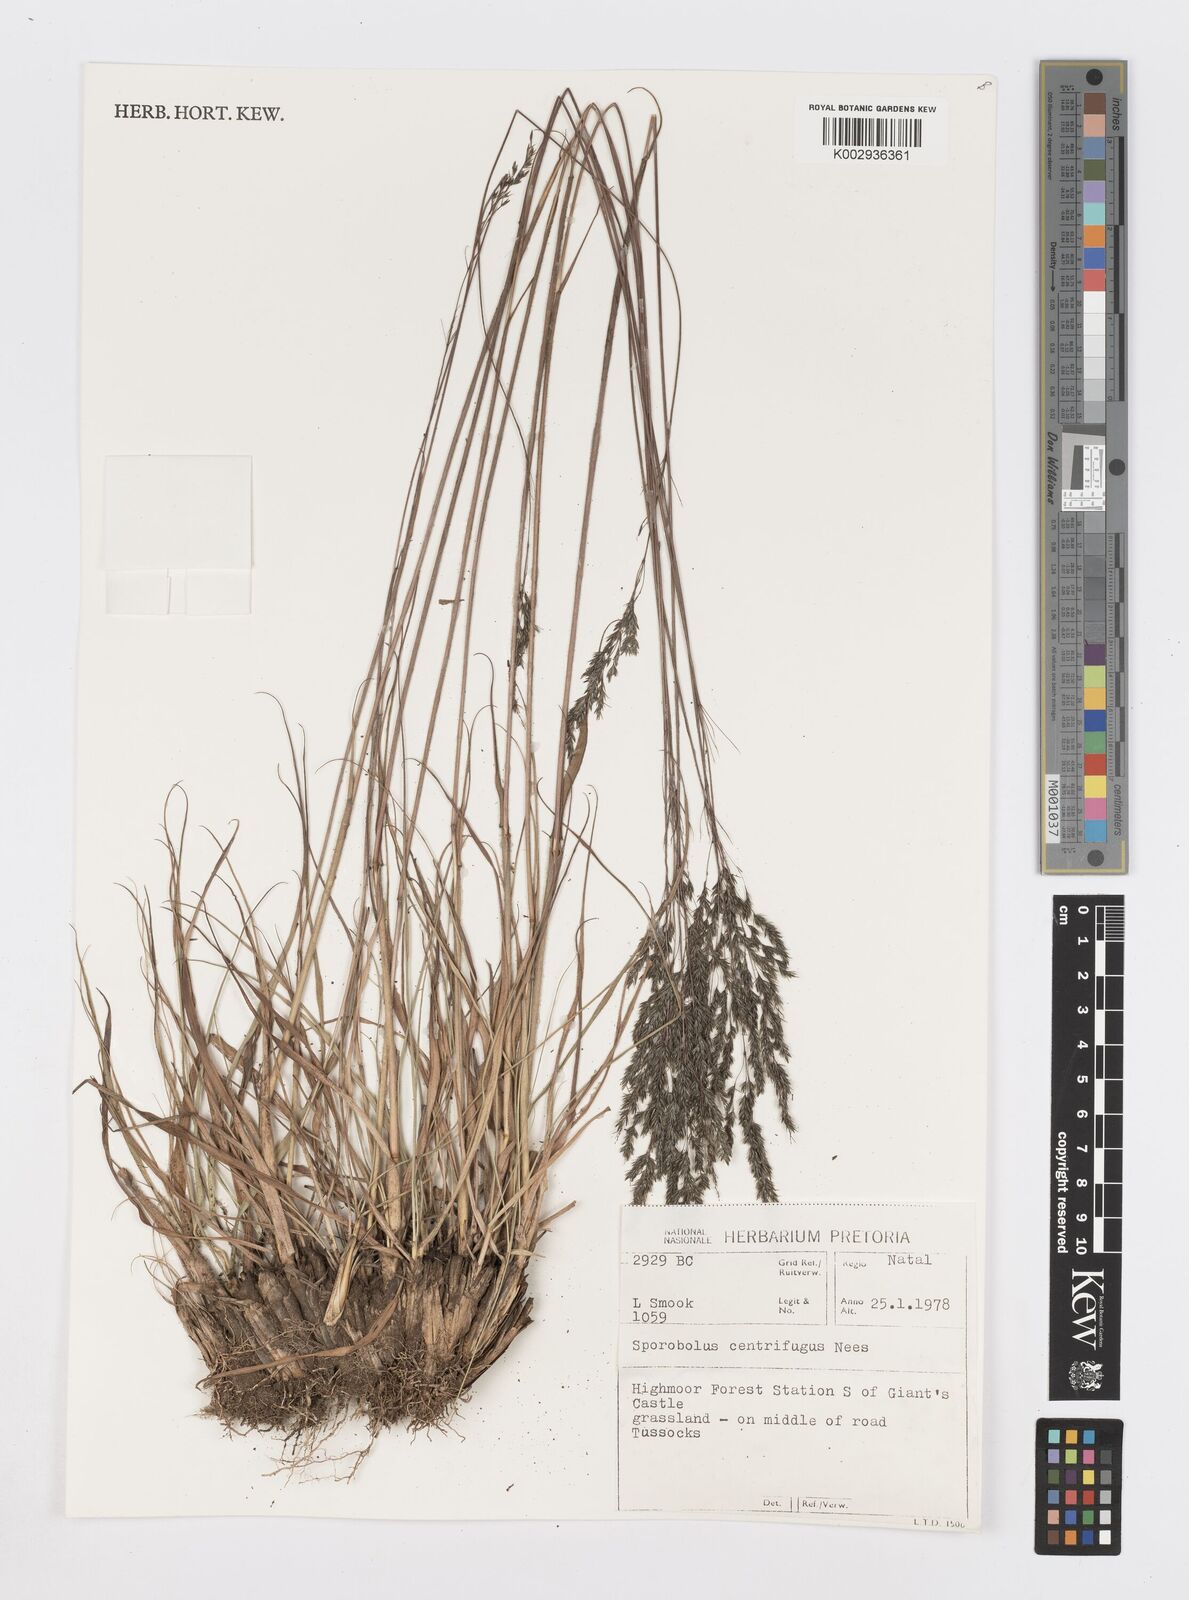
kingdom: Plantae
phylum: Tracheophyta
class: Liliopsida
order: Poales
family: Poaceae
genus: Sporobolus
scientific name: Sporobolus centrifugus
